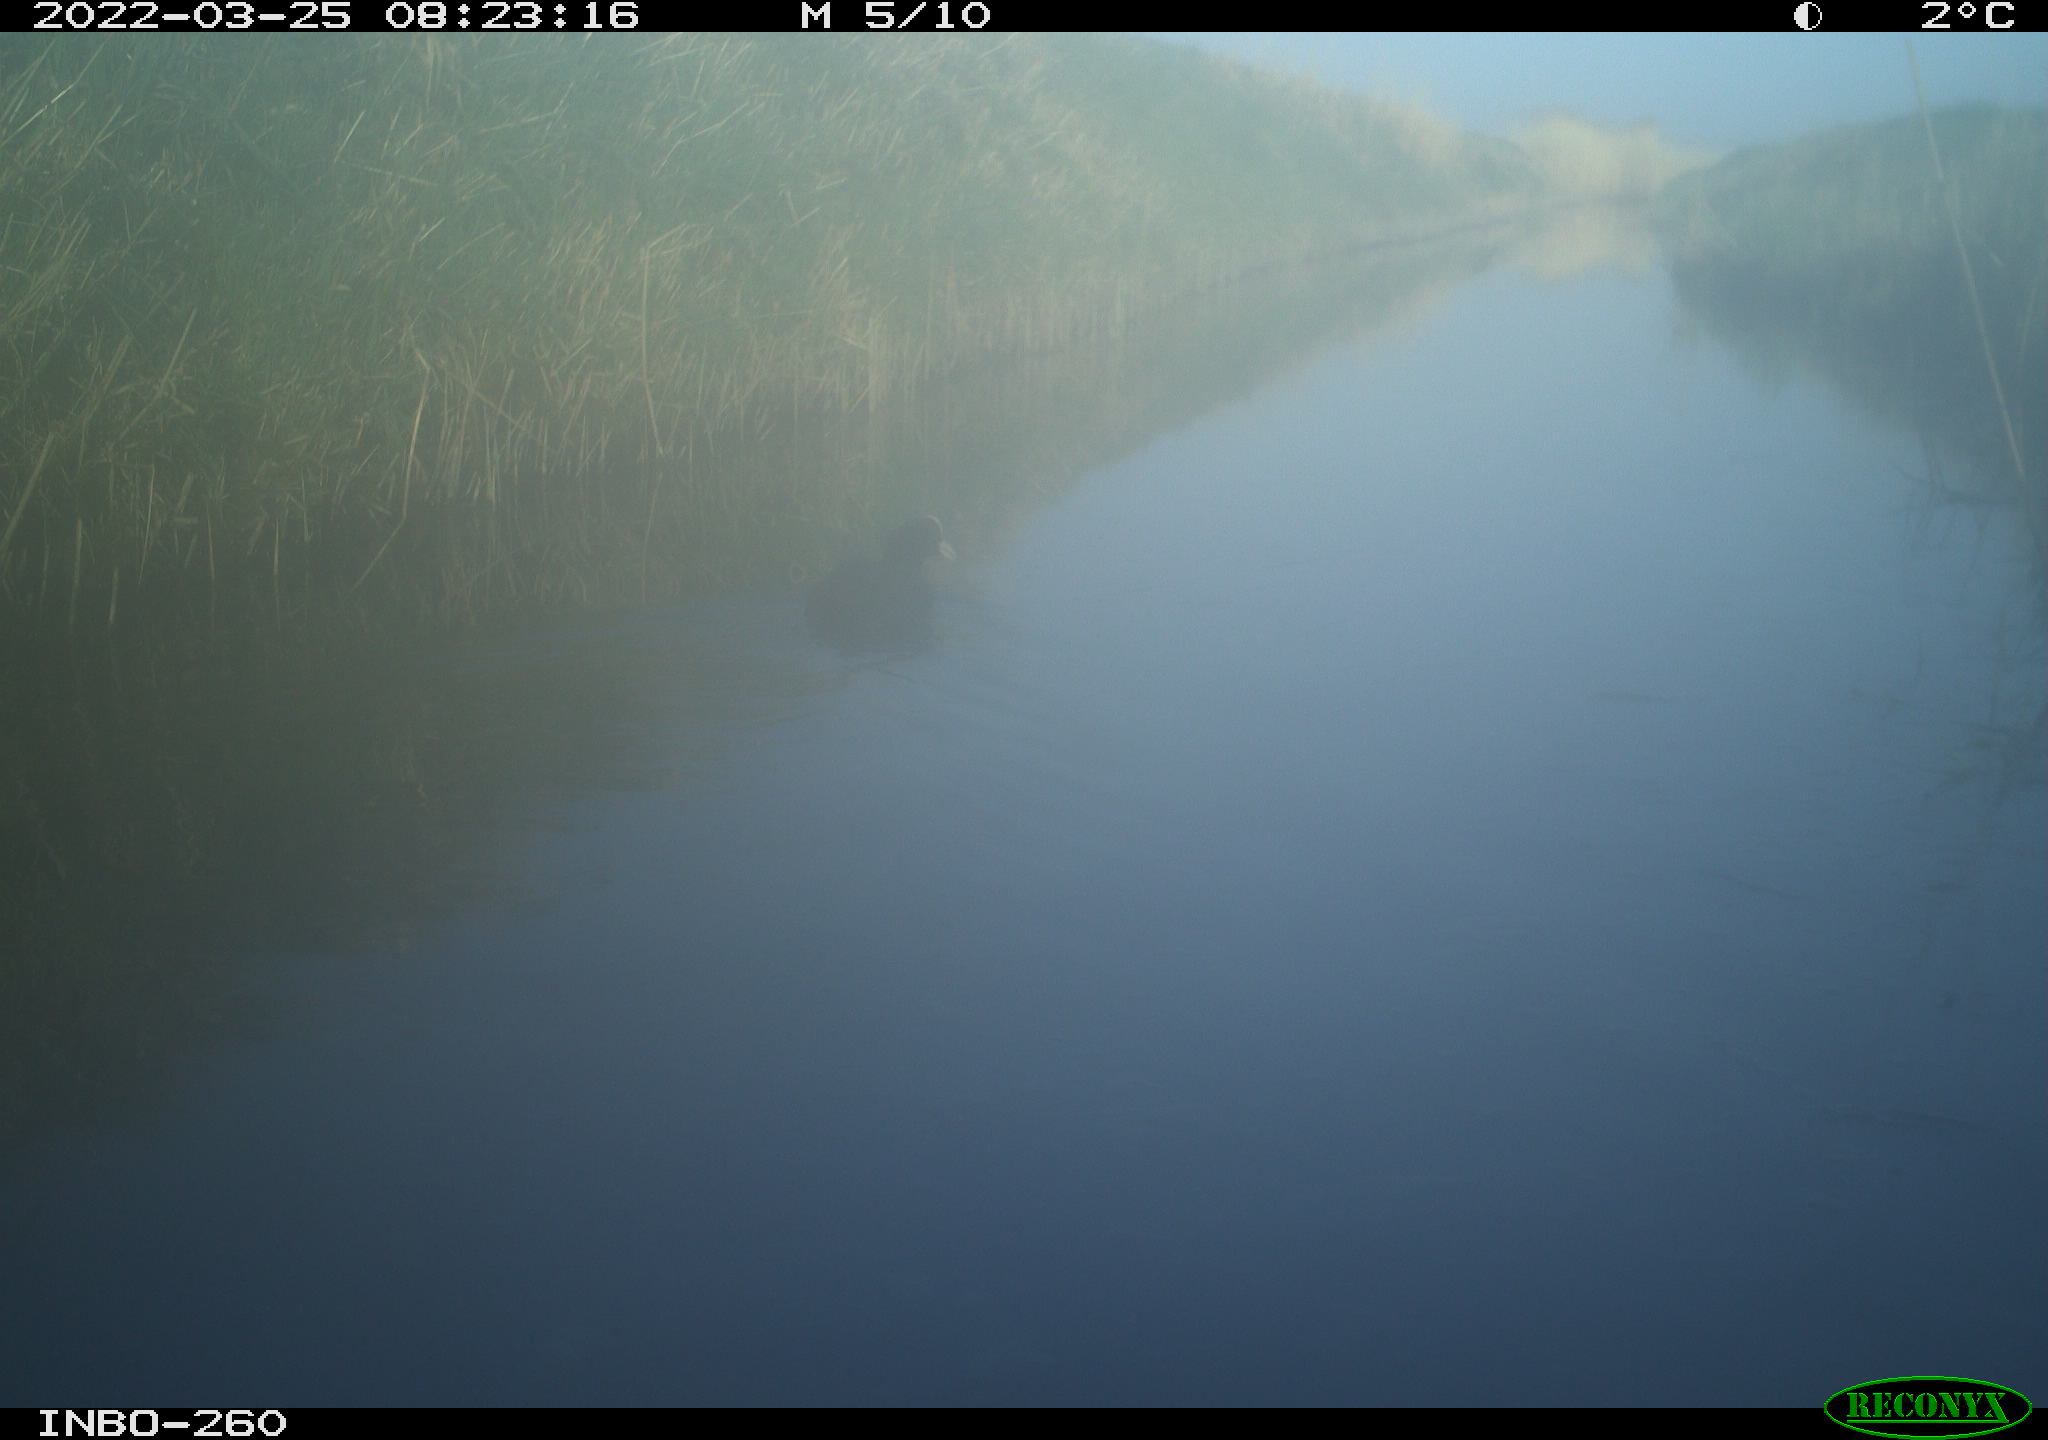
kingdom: Animalia
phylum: Chordata
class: Aves
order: Gruiformes
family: Rallidae
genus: Fulica
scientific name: Fulica atra
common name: Eurasian coot
